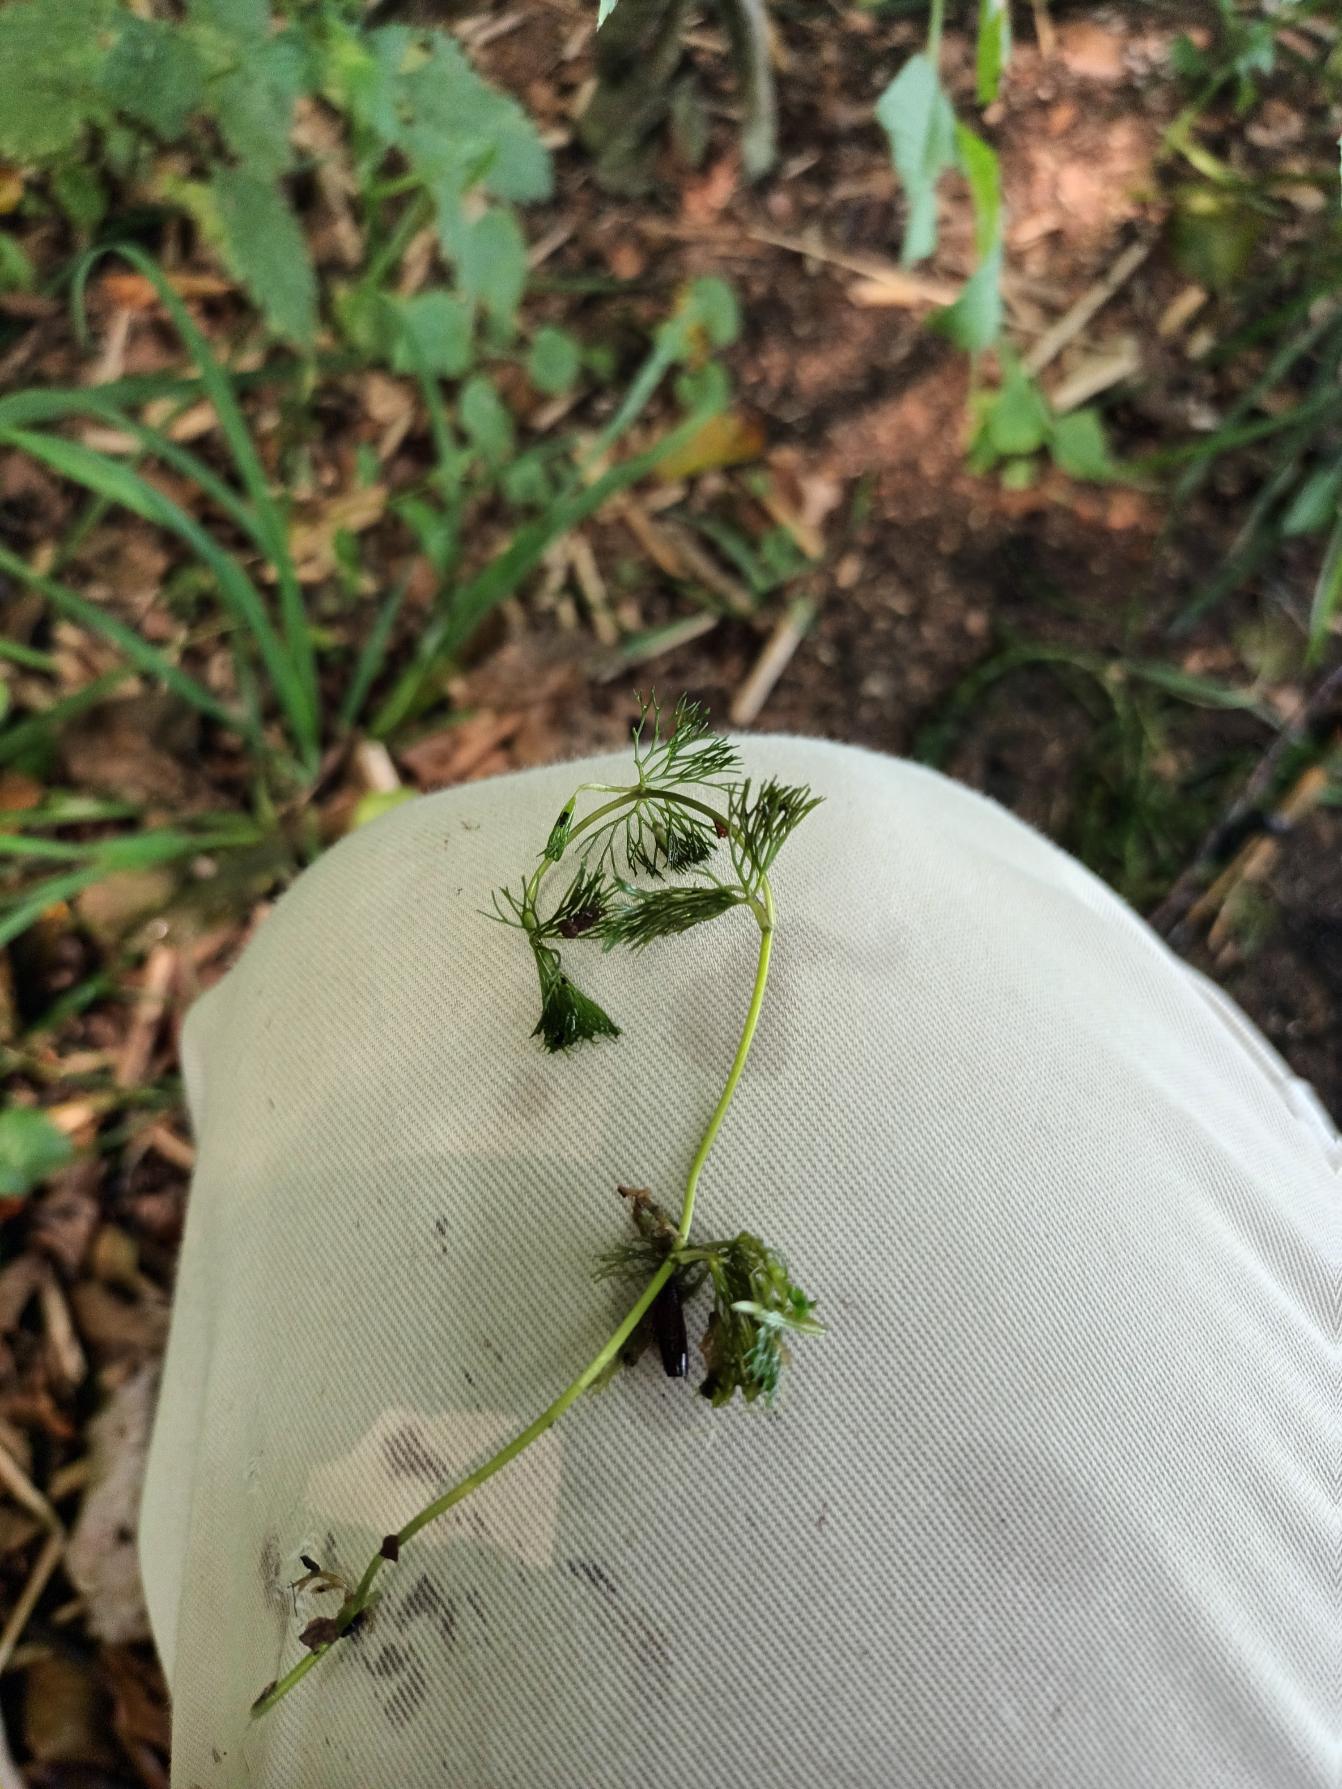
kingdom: Plantae
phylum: Tracheophyta
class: Magnoliopsida
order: Ranunculales
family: Ranunculaceae
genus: Ranunculus
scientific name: Ranunculus circinatus
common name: Kredsbladet vandranunkel
